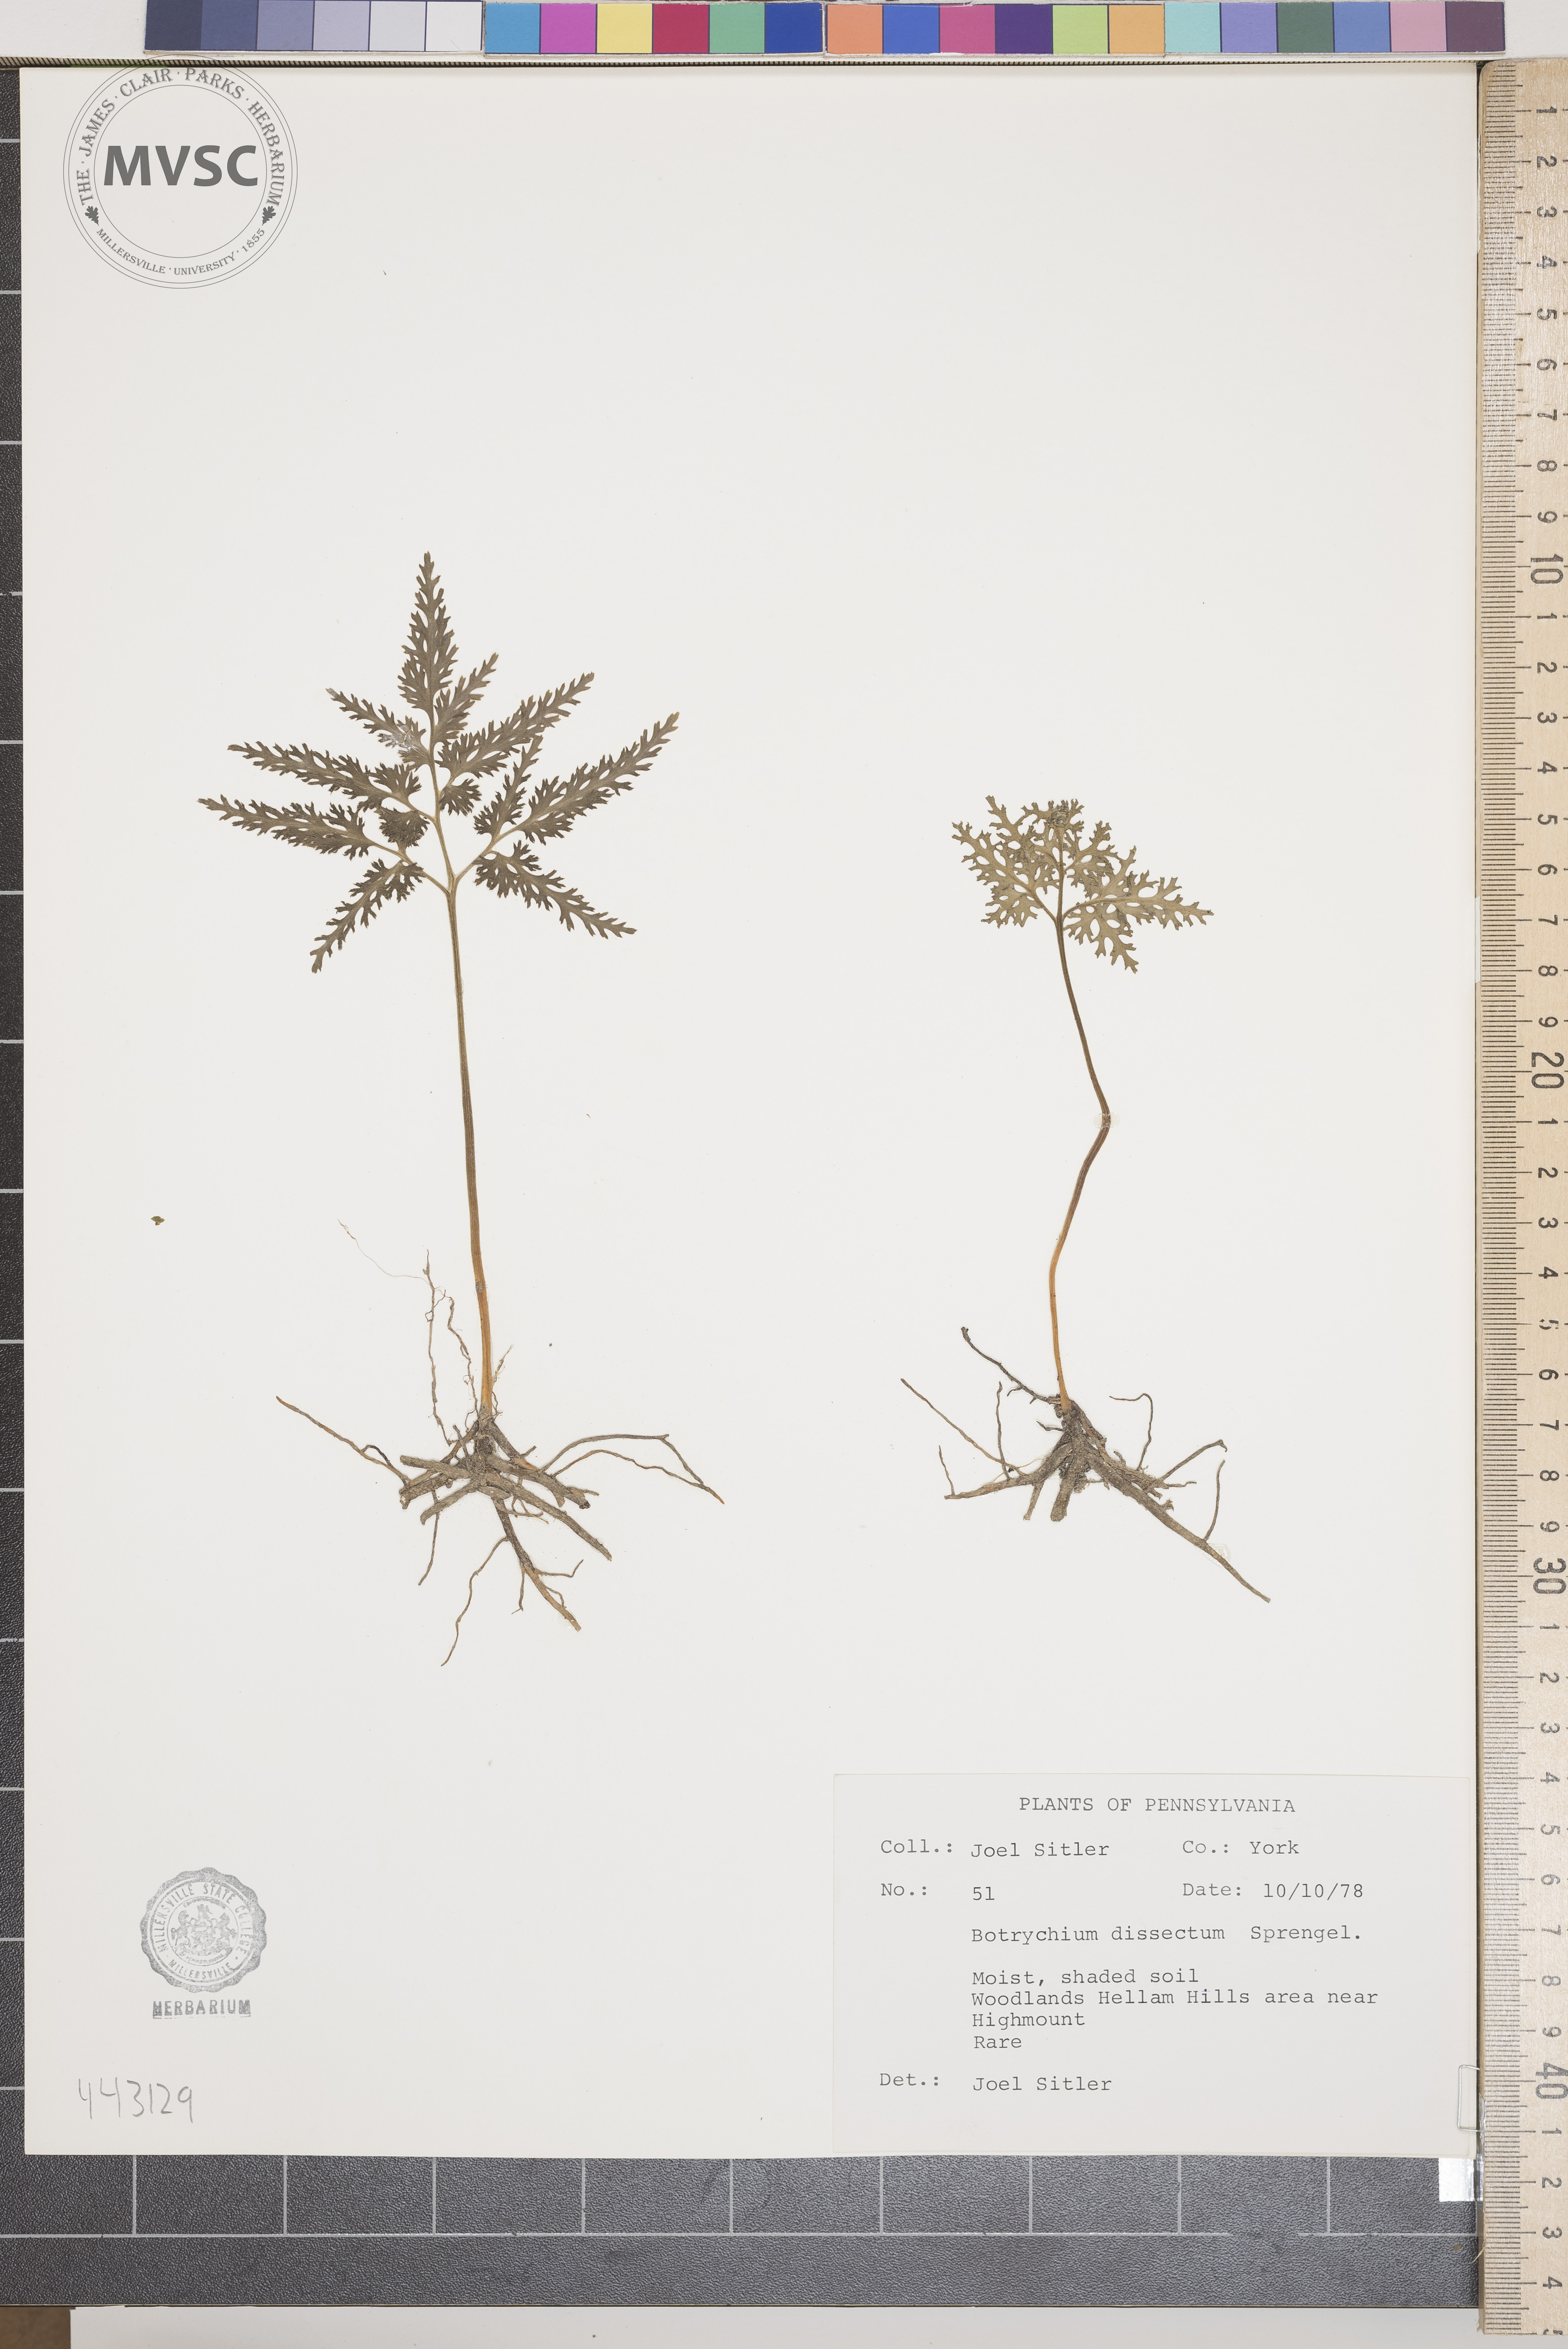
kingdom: Plantae
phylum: Tracheophyta
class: Polypodiopsida
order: Ophioglossales
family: Ophioglossaceae
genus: Sceptridium
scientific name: Sceptridium dissectum
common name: Cut-leaved grapefern
